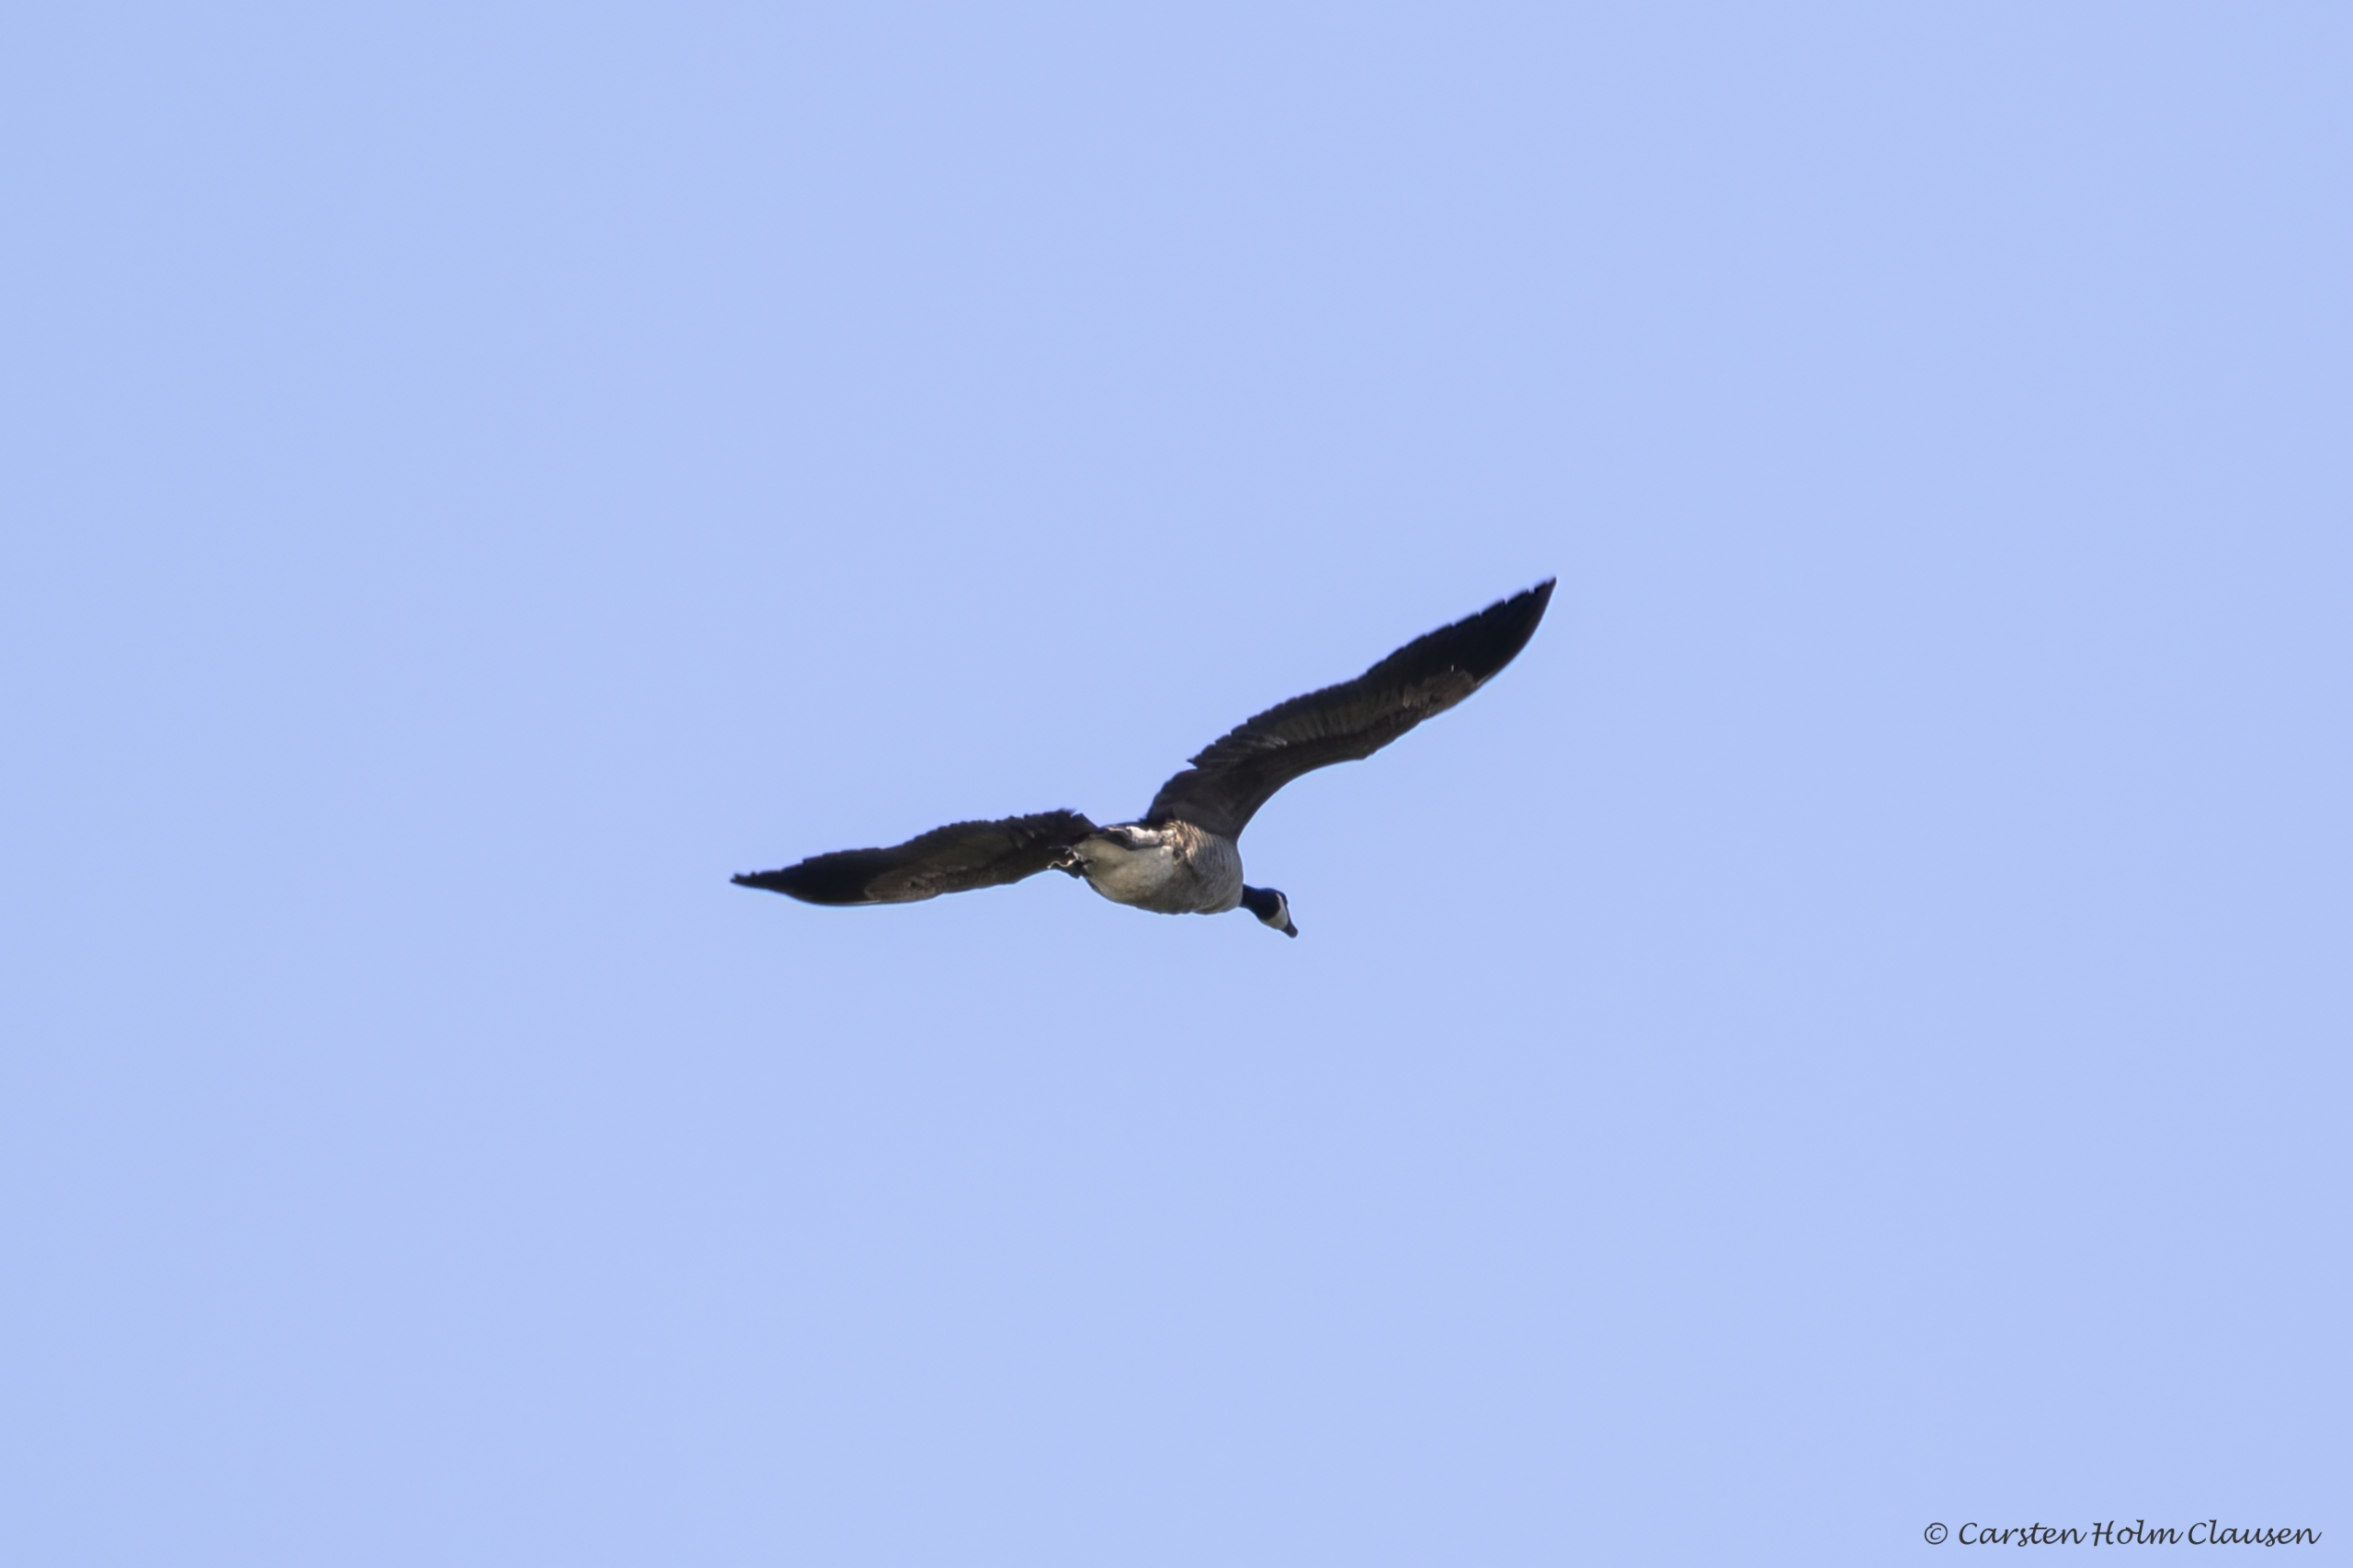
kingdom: Animalia
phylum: Chordata
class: Aves
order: Anseriformes
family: Anatidae
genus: Branta
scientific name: Branta canadensis
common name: Canadagås
